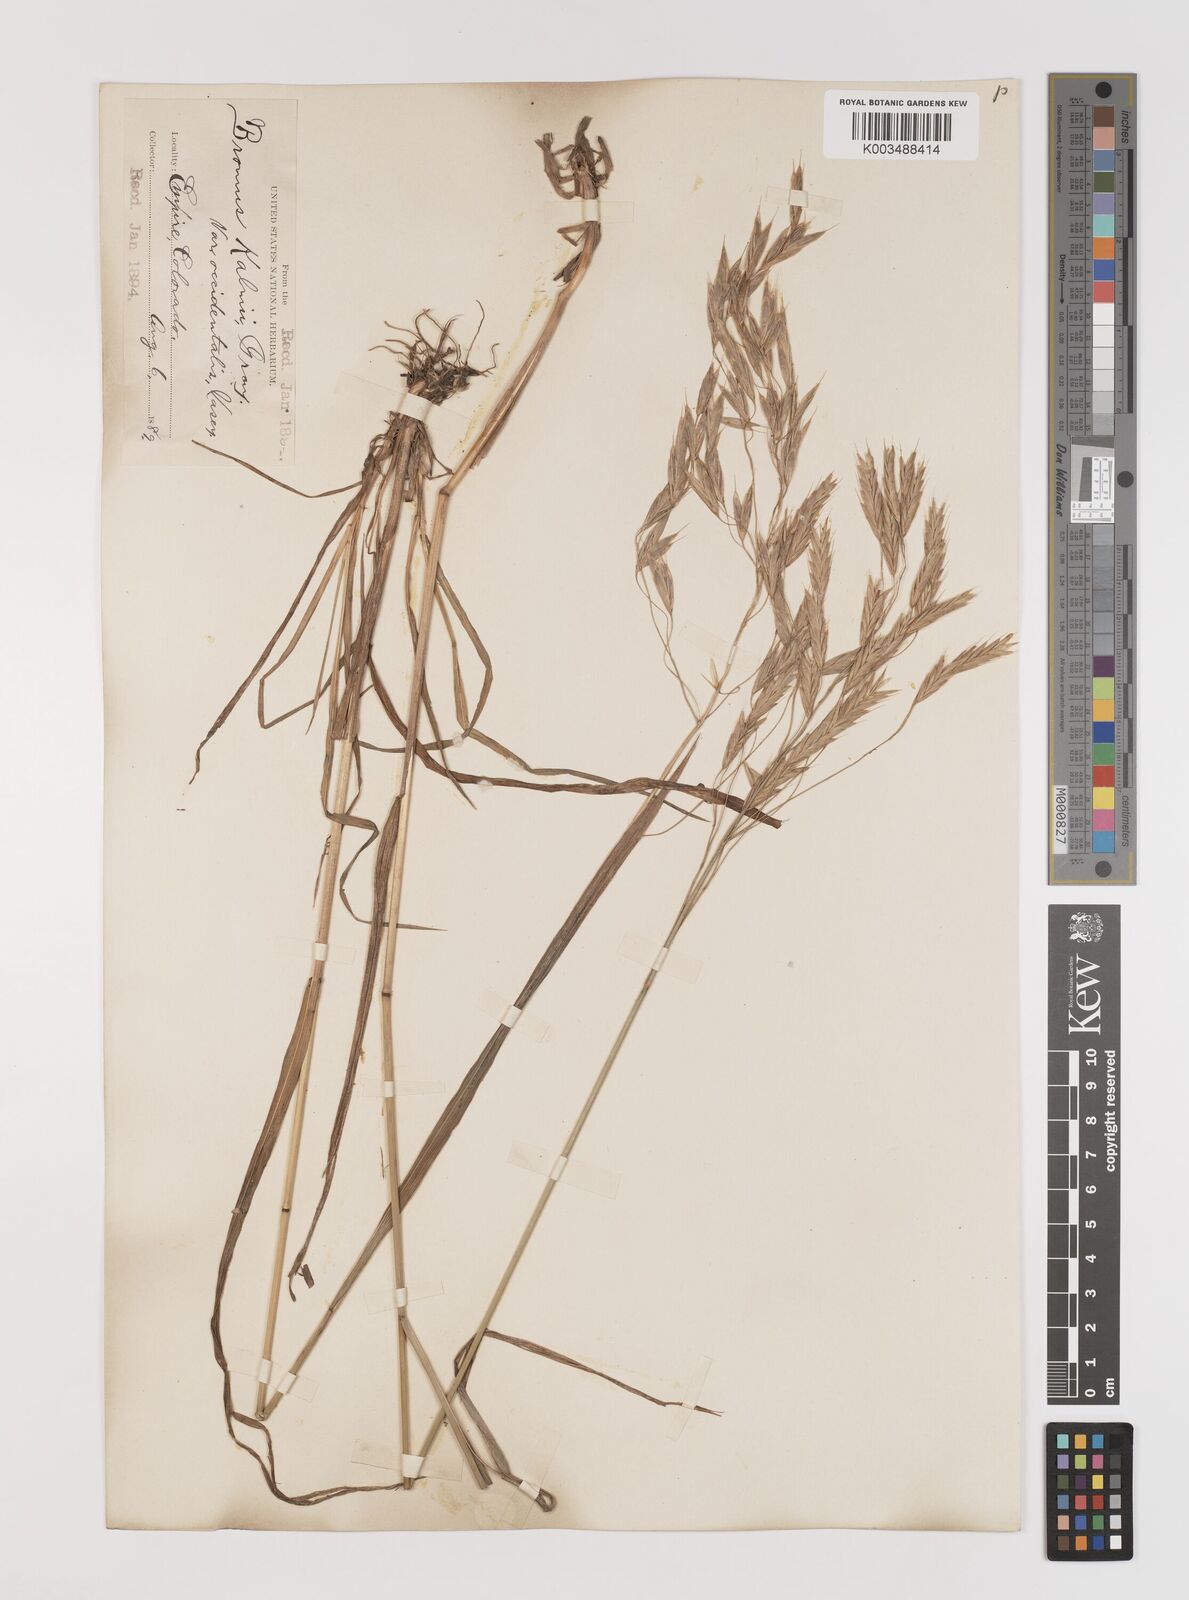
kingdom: Plantae
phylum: Tracheophyta
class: Liliopsida
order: Poales
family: Poaceae
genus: Bromus
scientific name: Bromus ciliatus
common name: Fringe brome
